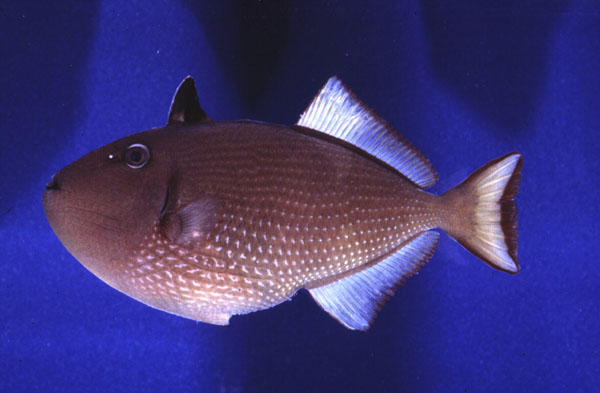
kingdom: Animalia
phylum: Chordata
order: Tetraodontiformes
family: Balistidae
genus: Xanthichthys
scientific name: Xanthichthys auromarginatus
